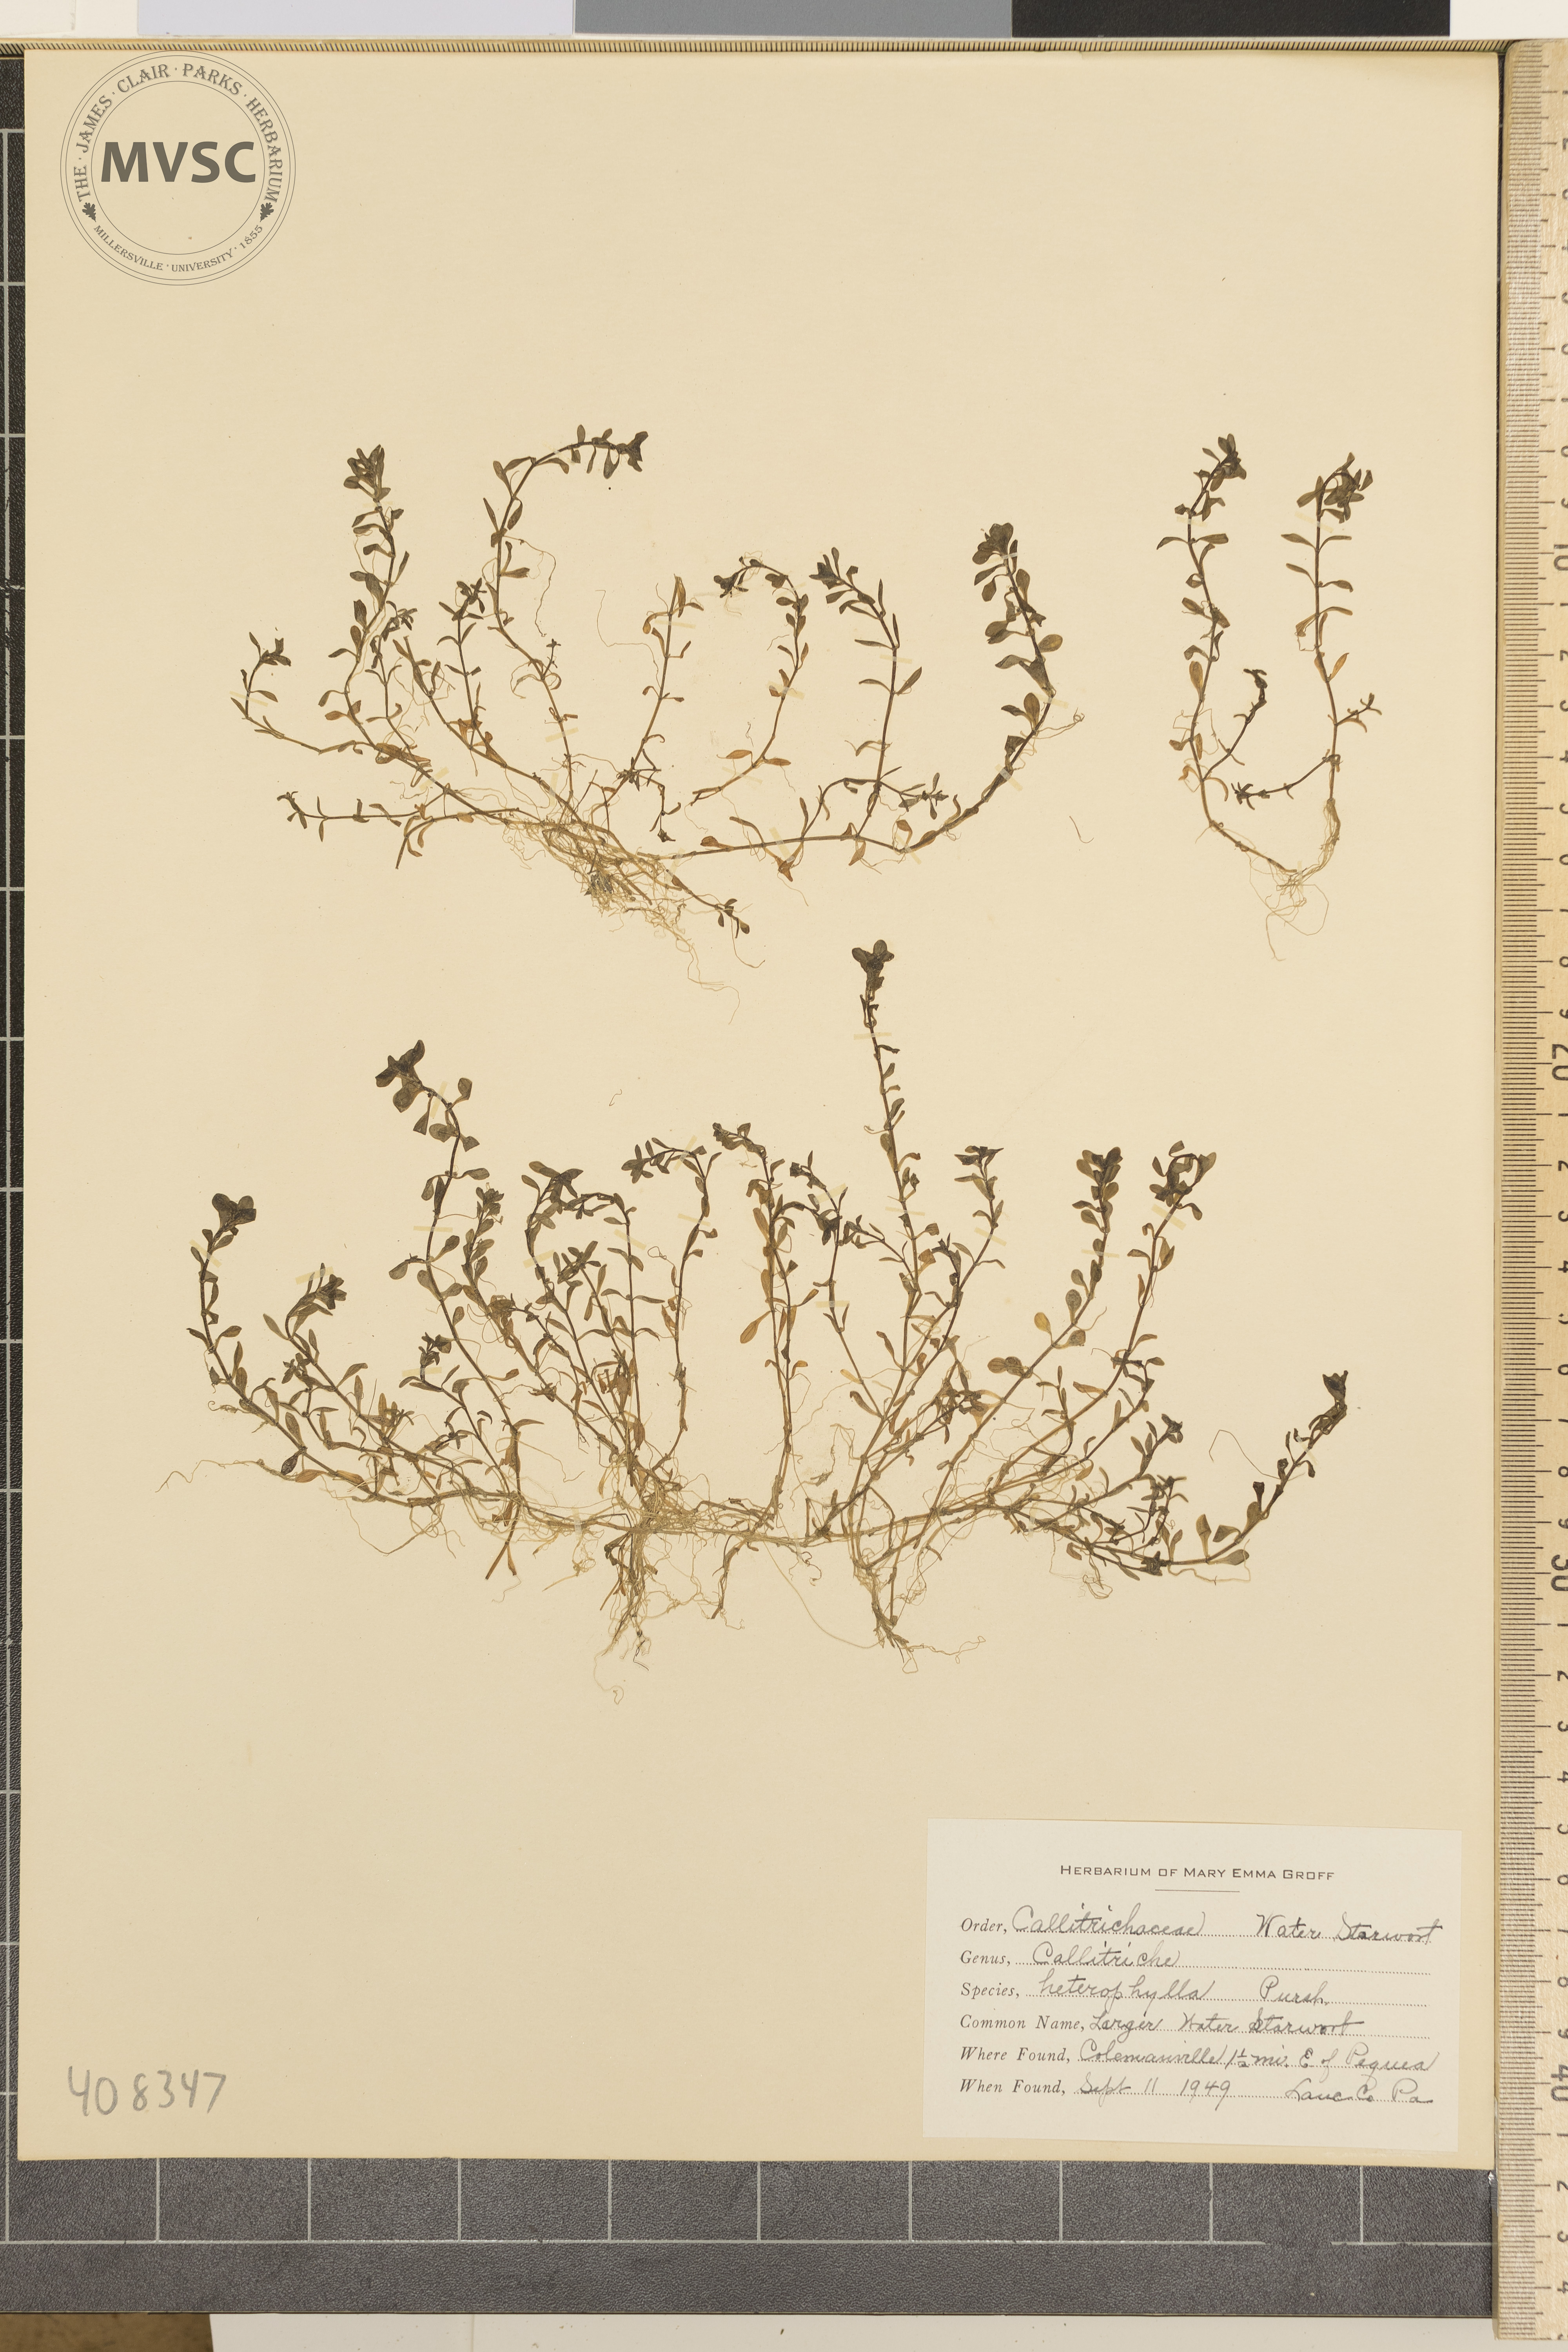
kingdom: Plantae
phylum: Tracheophyta
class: Magnoliopsida
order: Lamiales
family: Plantaginaceae
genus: Callitriche
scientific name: Callitriche heterophylla
